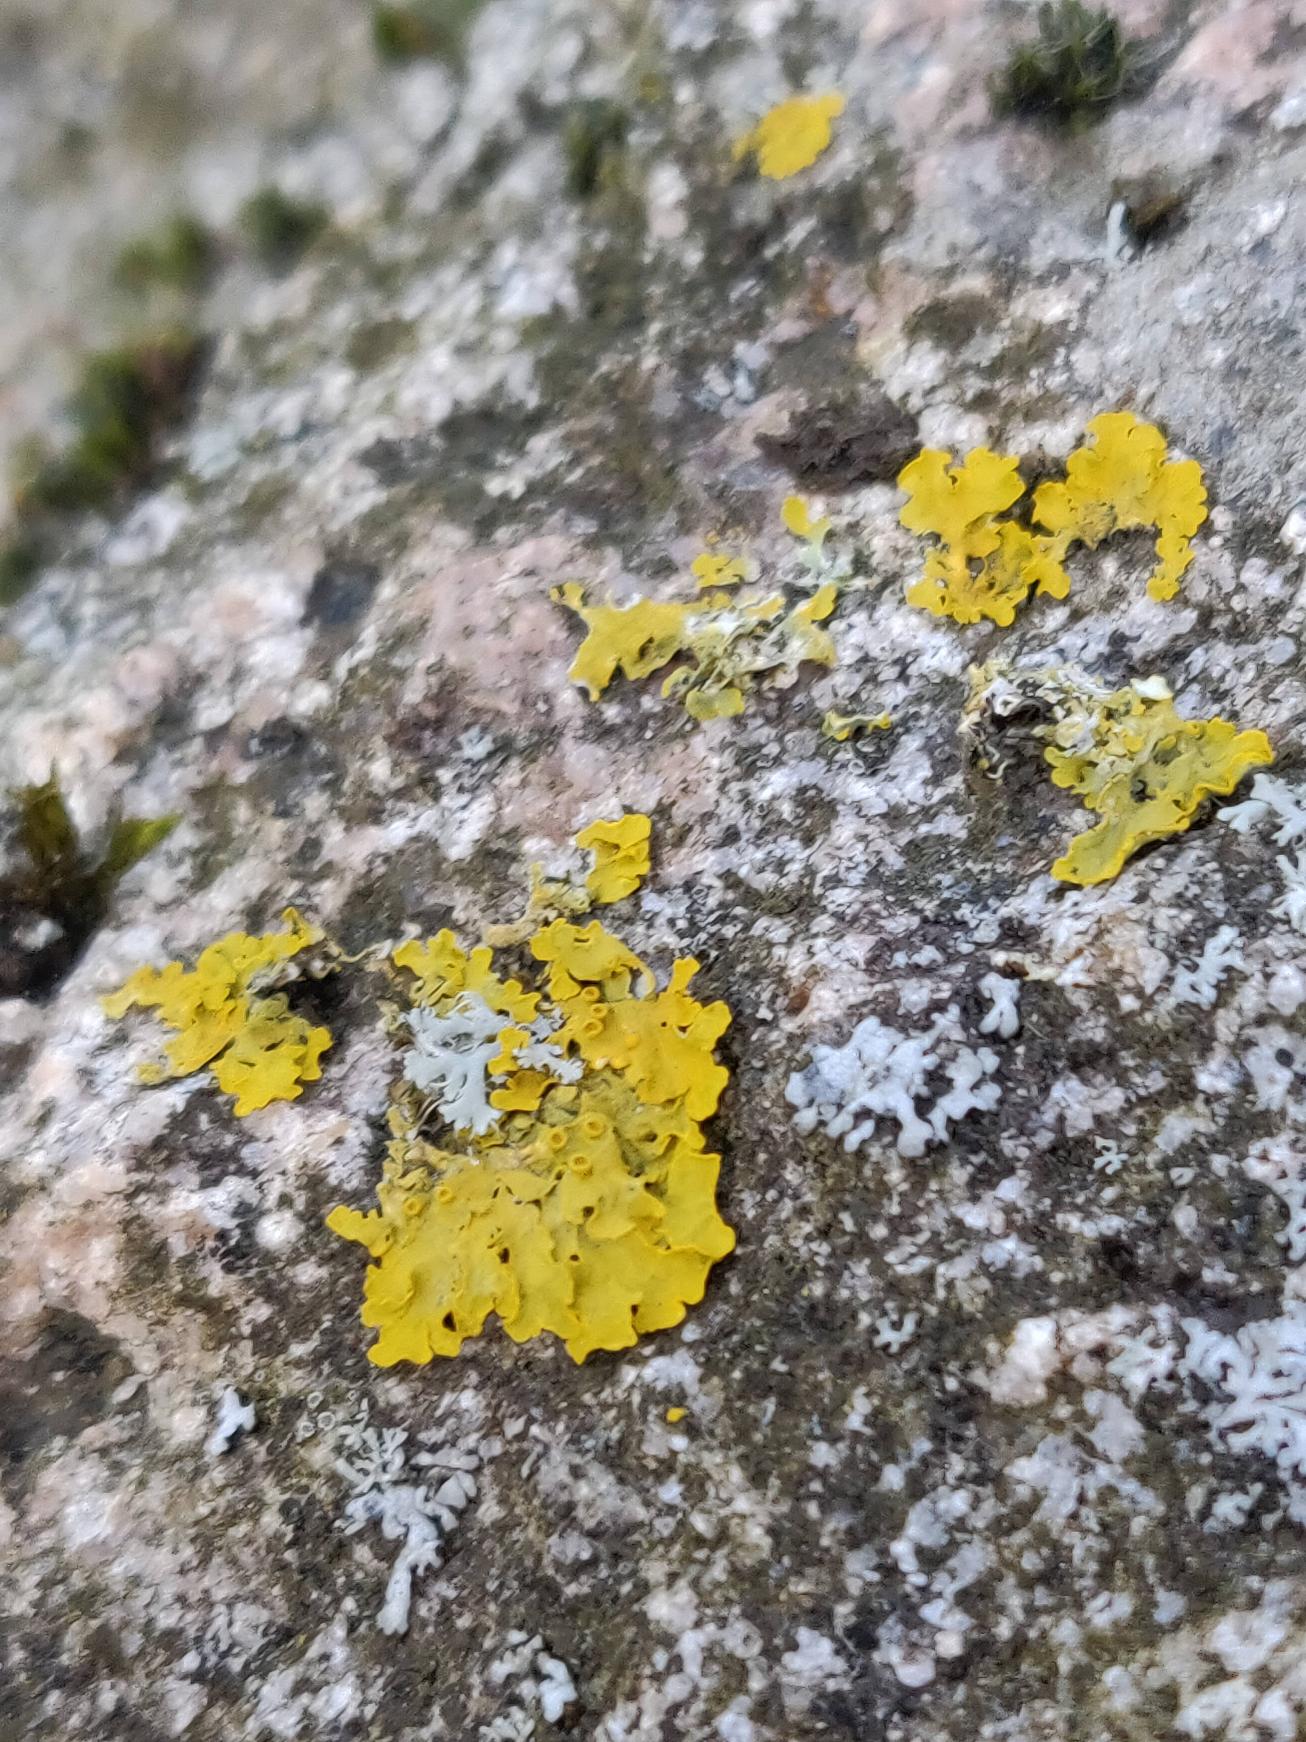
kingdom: Fungi
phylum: Ascomycota
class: Lecanoromycetes
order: Teloschistales
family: Teloschistaceae
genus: Xanthoria
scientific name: Xanthoria parietina
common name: Almindelig væggelav
